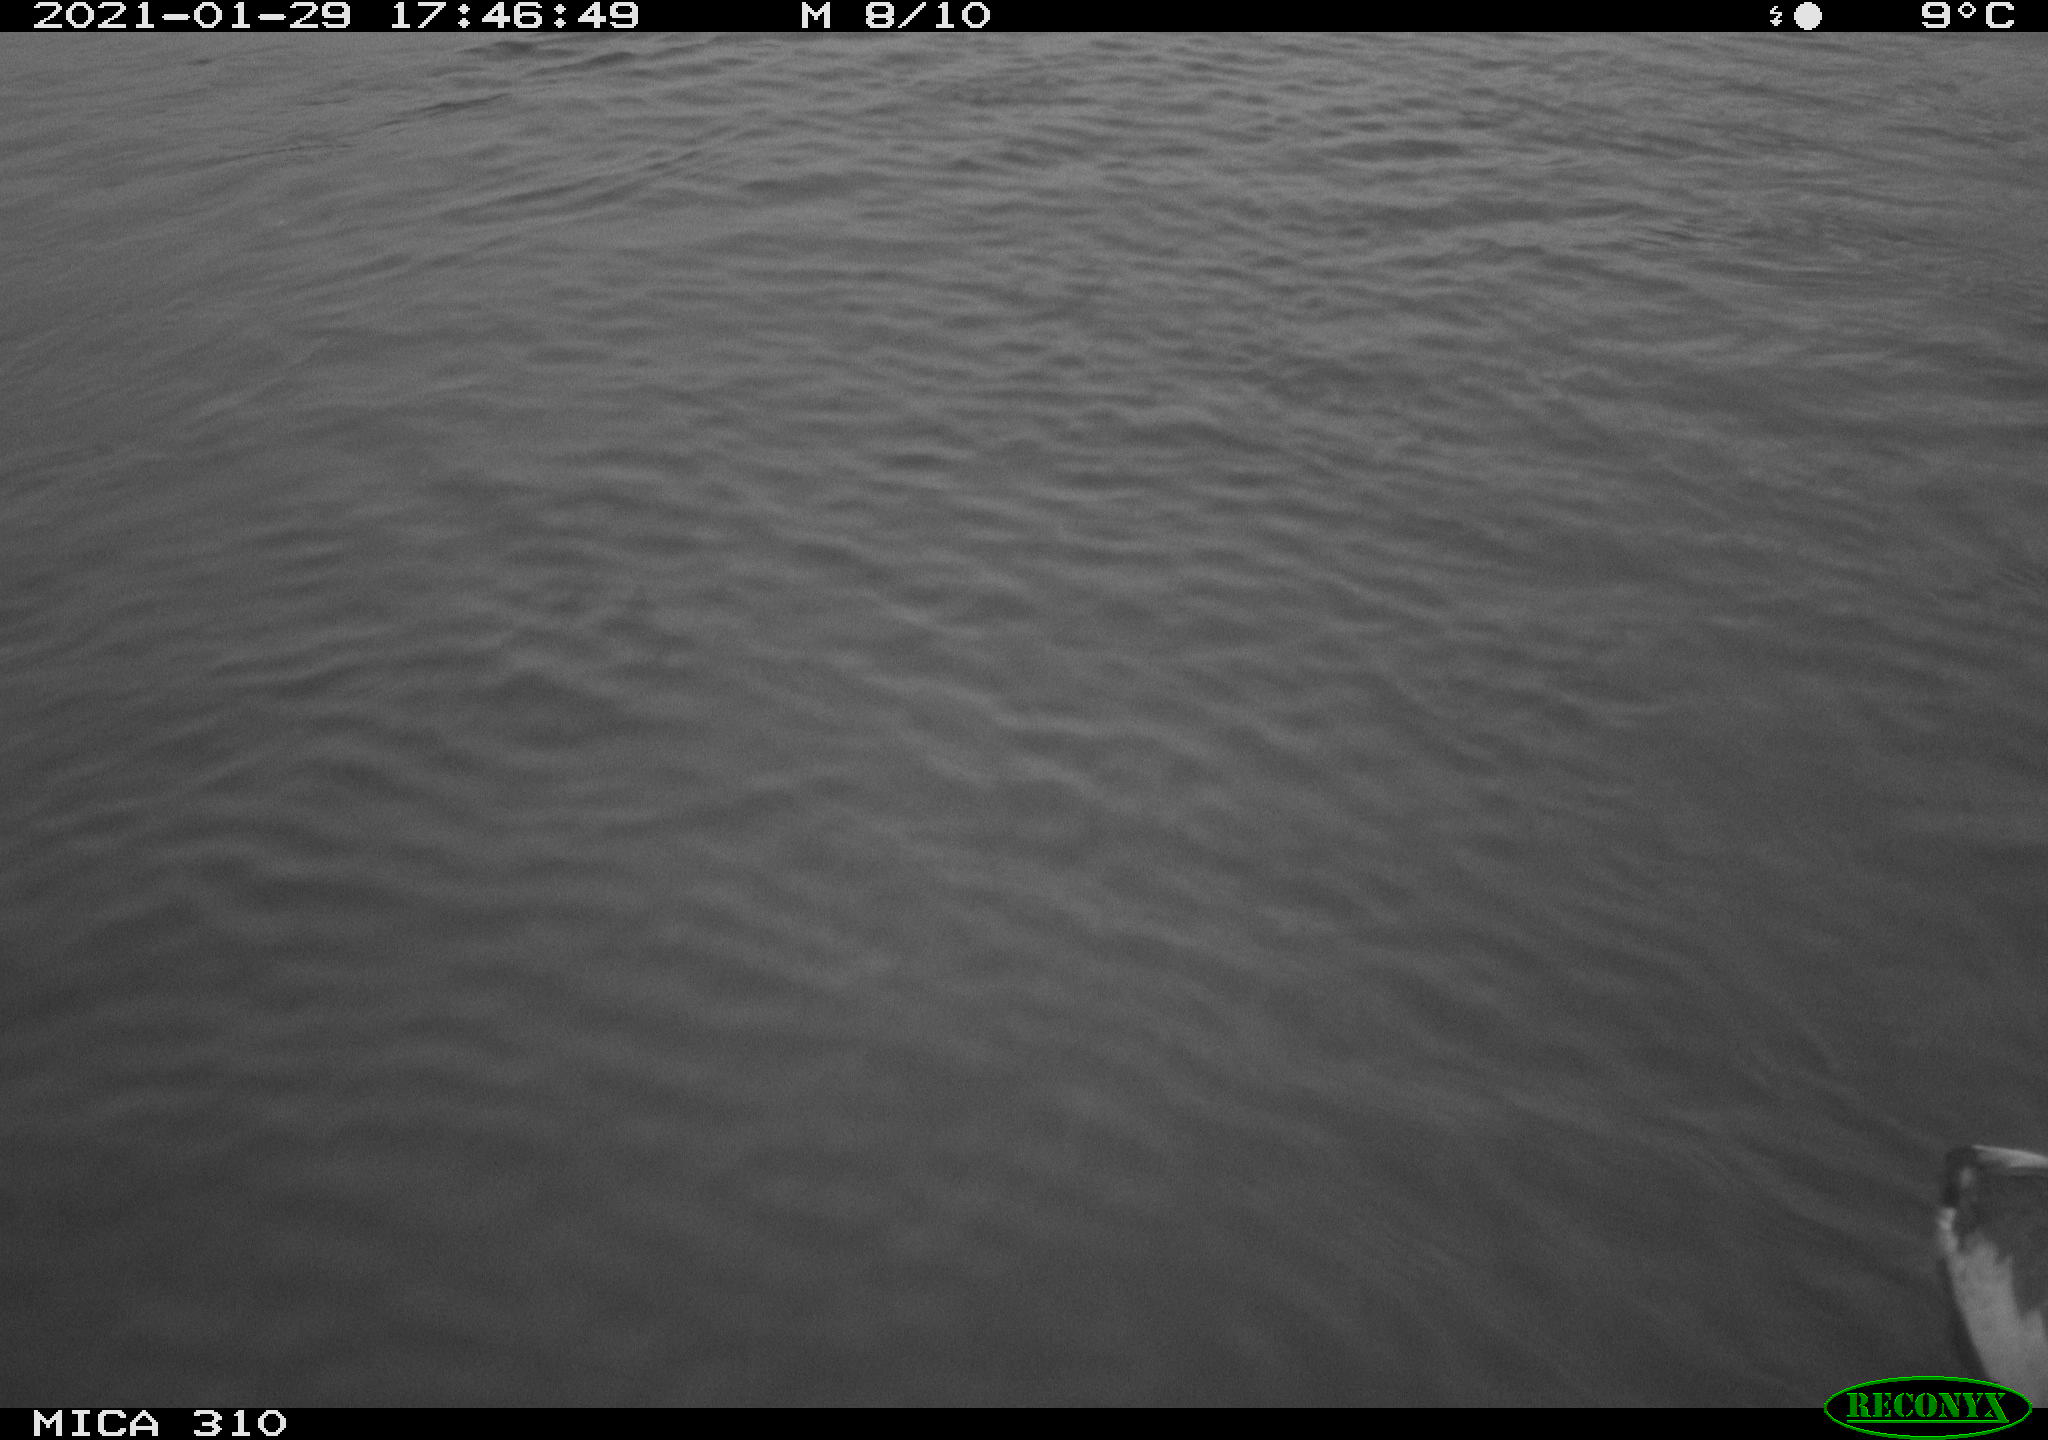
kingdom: Animalia
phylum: Chordata
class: Aves
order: Gruiformes
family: Rallidae
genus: Fulica
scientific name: Fulica atra
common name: Eurasian coot
